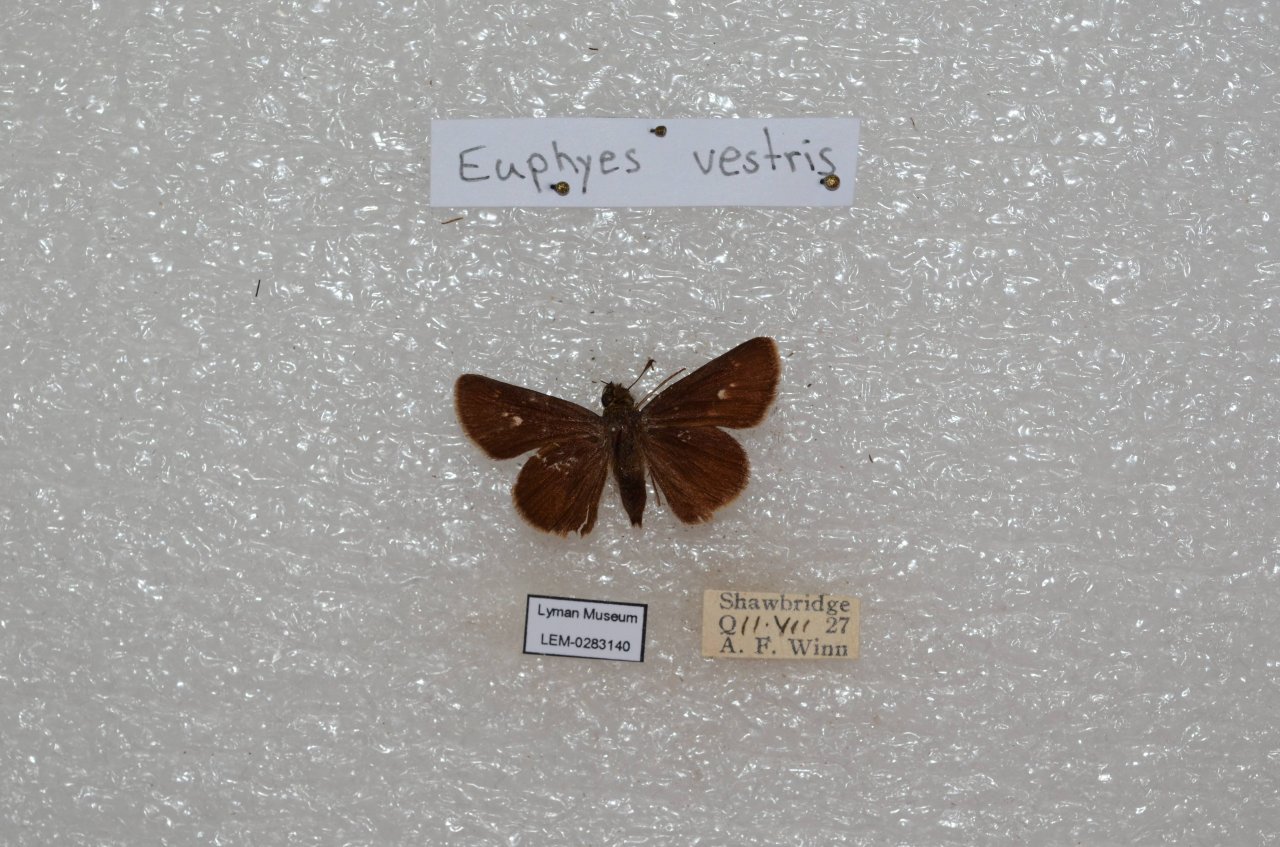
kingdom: Animalia
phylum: Arthropoda
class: Insecta
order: Lepidoptera
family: Hesperiidae
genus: Euphyes
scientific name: Euphyes vestris
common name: Dun Skipper
